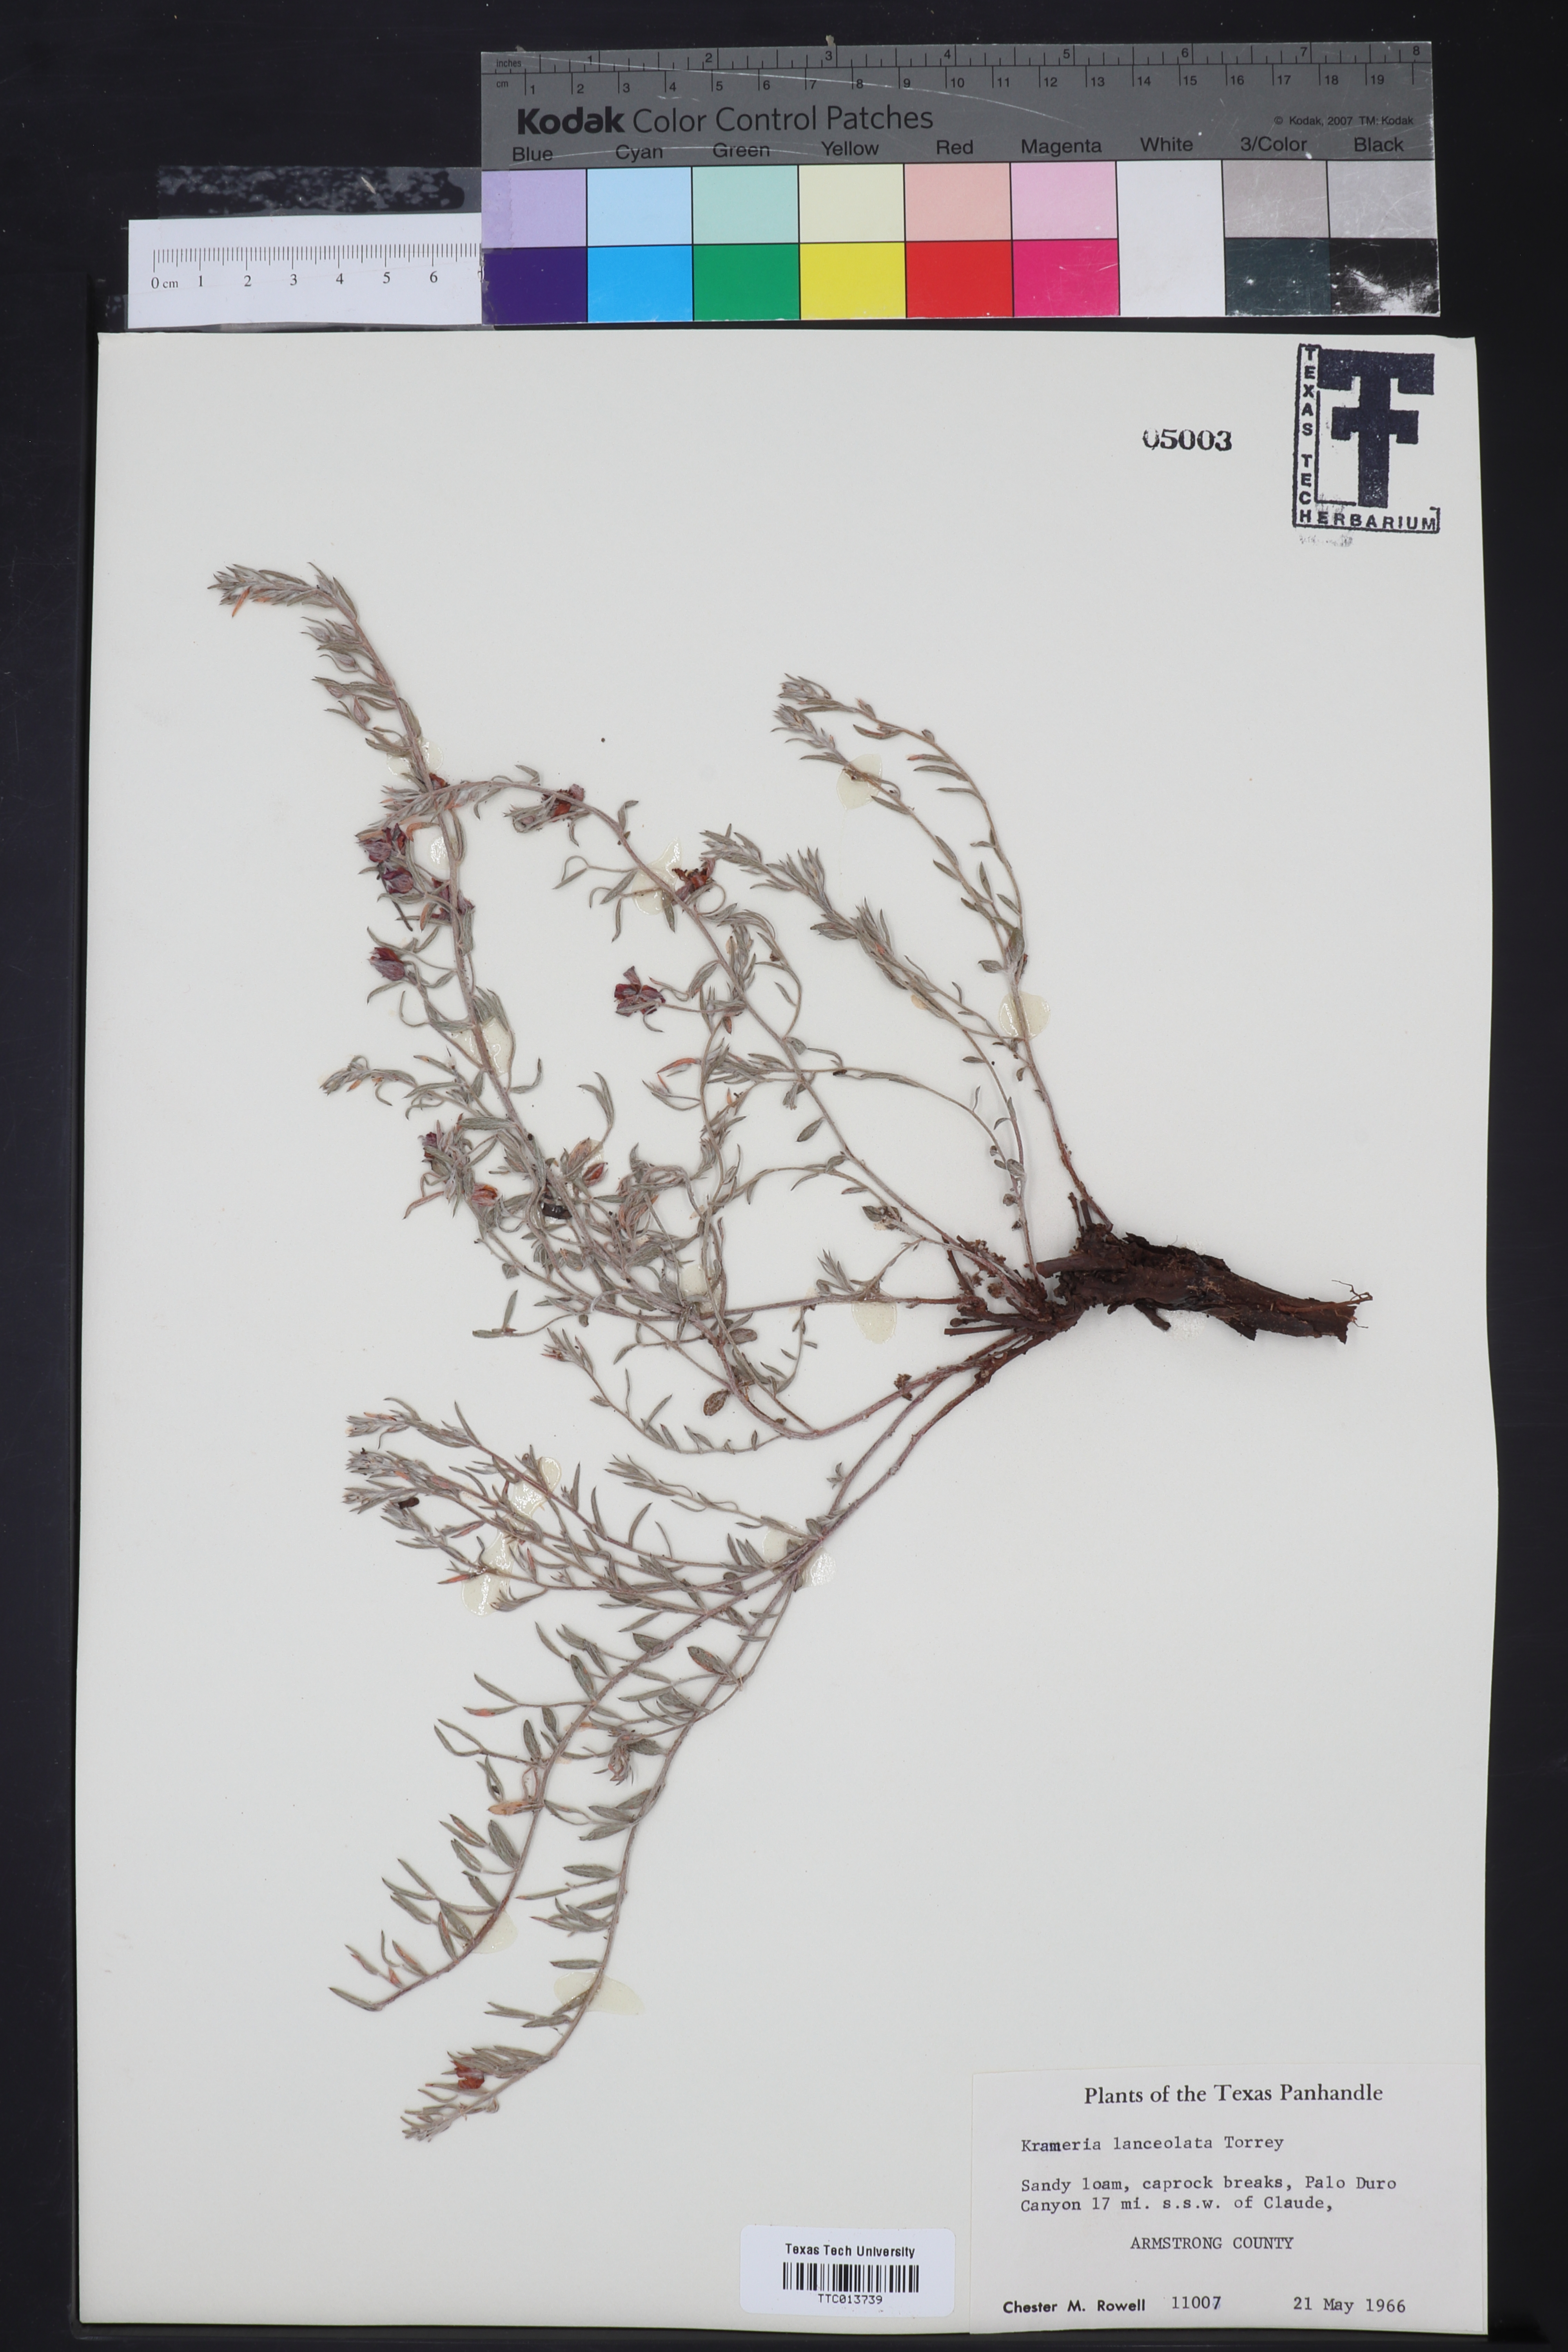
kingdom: Plantae
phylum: Tracheophyta
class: Magnoliopsida
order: Zygophyllales
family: Krameriaceae
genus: Krameria
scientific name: Krameria lanceolata
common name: Ratany
